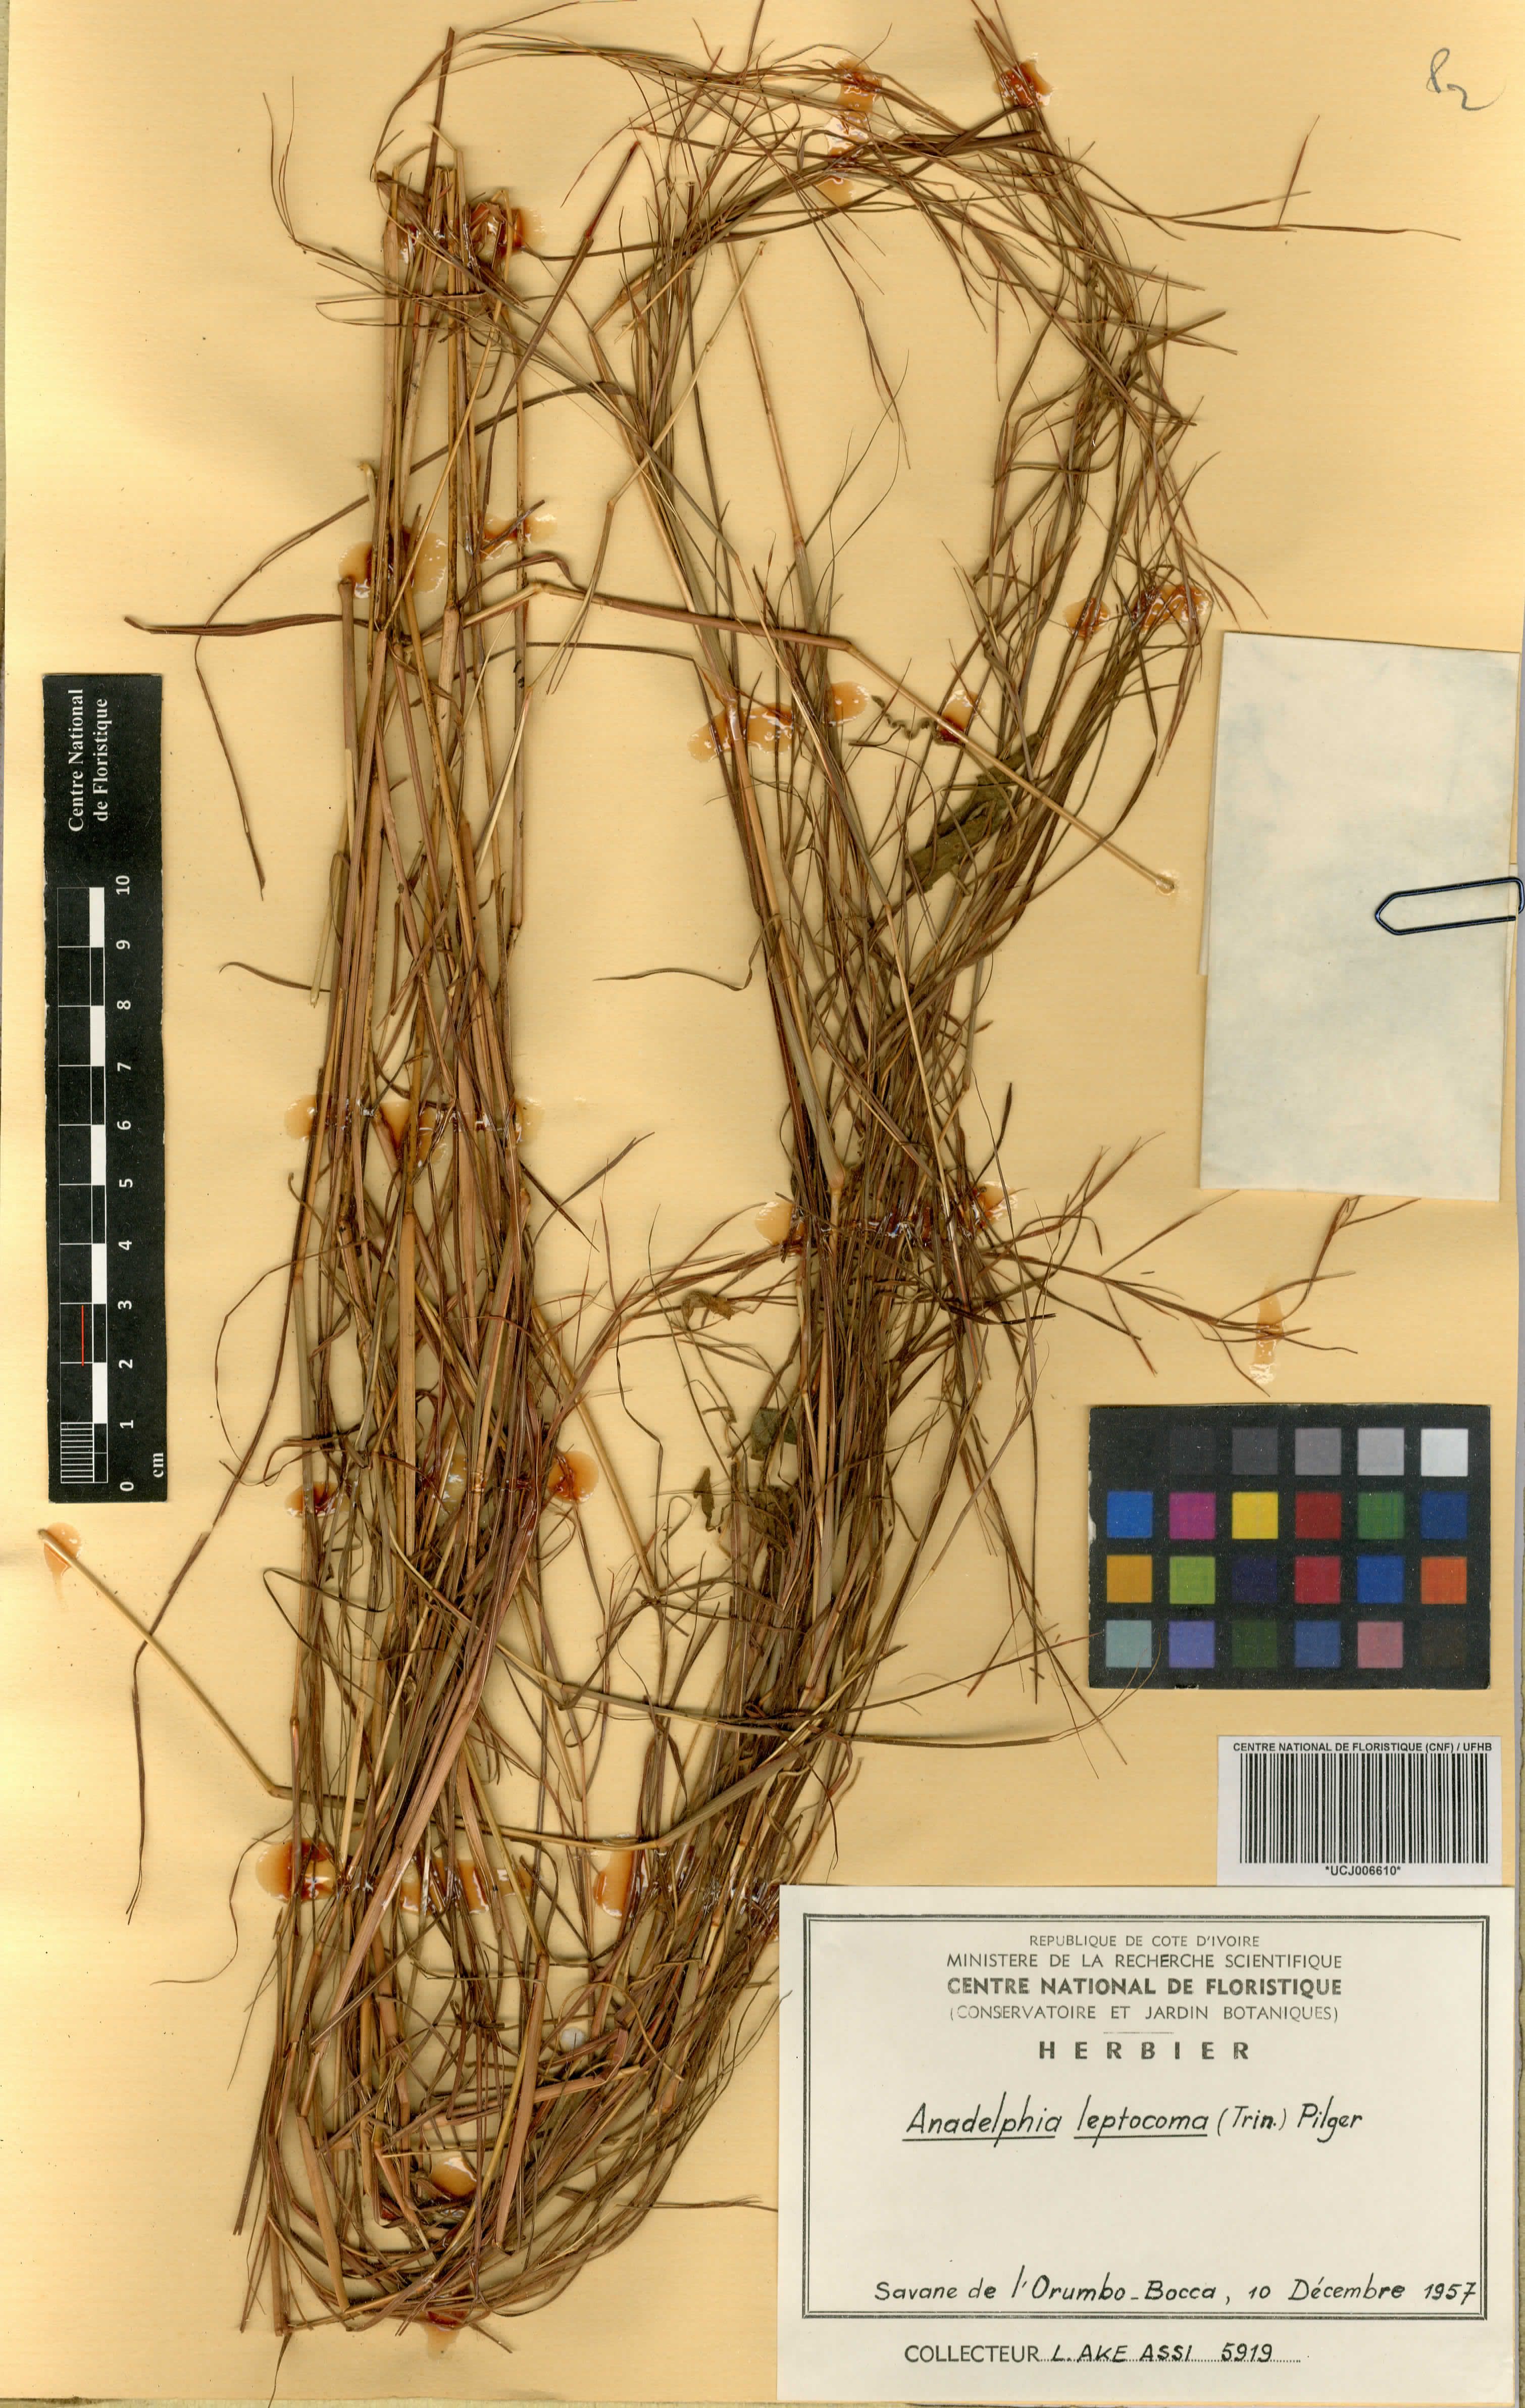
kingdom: Plantae
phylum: Tracheophyta
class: Liliopsida
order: Poales
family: Poaceae
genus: Anadelphia
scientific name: Anadelphia leptocoma
